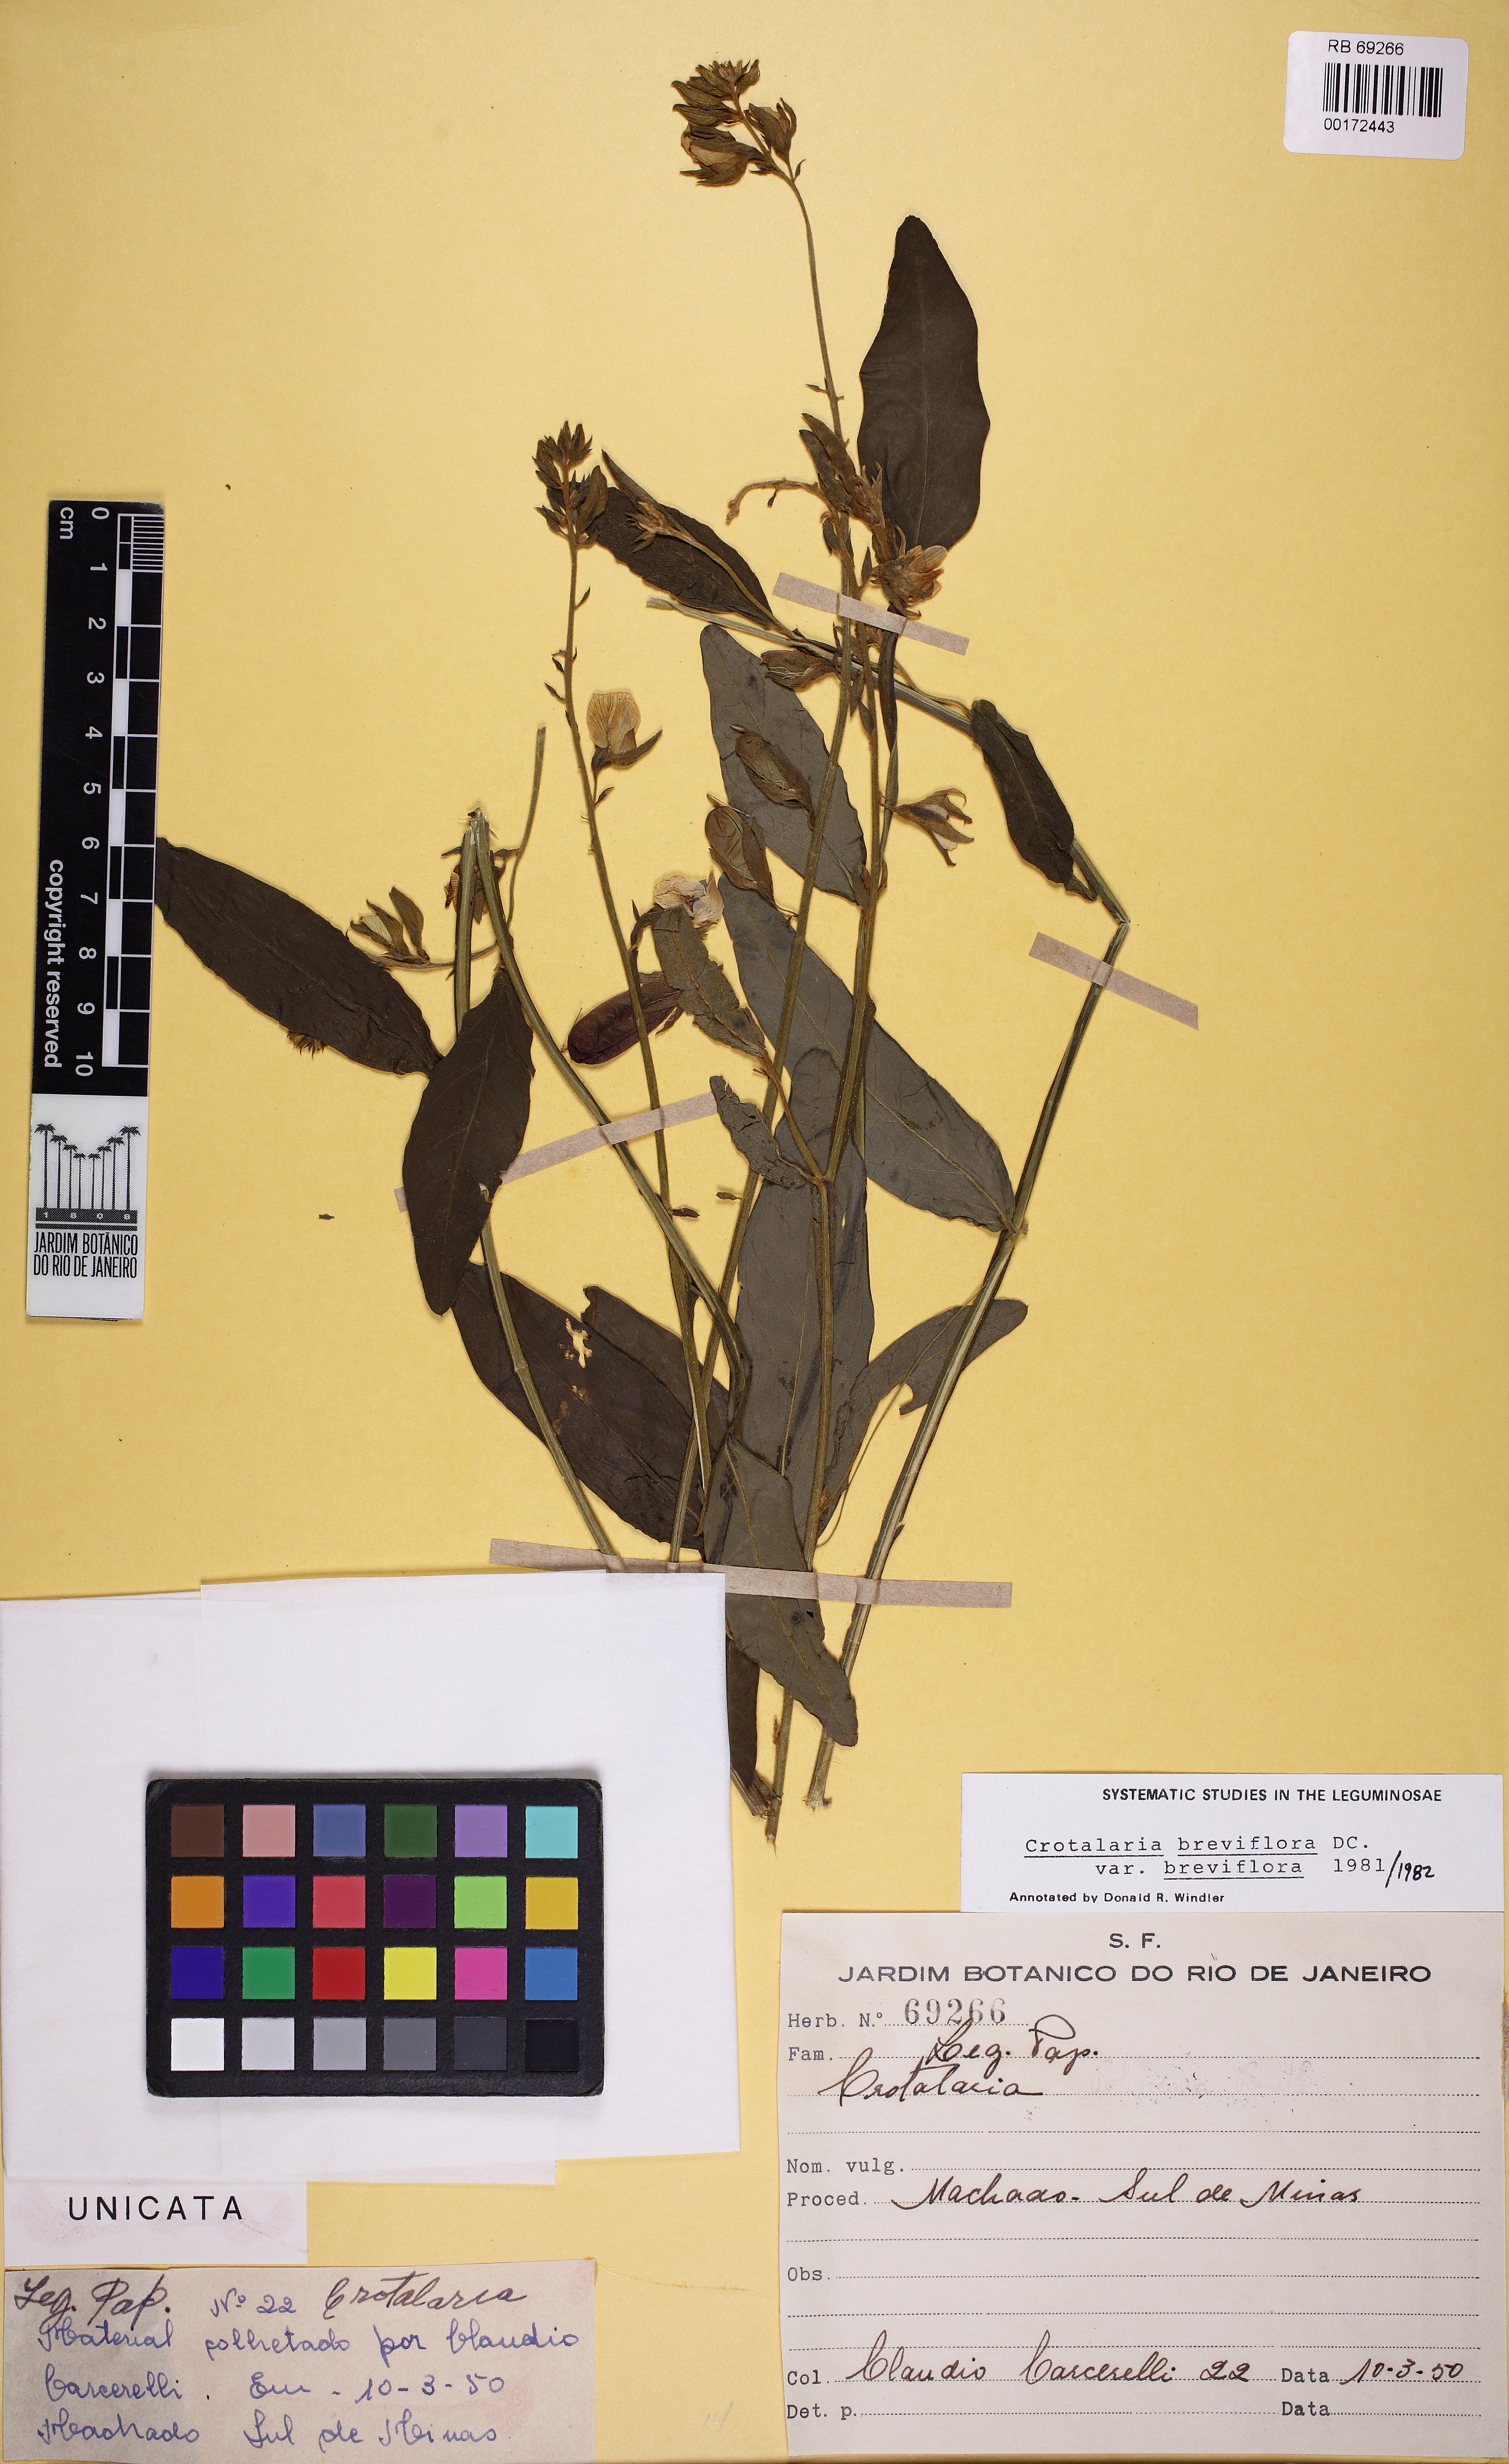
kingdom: Plantae
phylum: Tracheophyta
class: Magnoliopsida
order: Fabales
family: Fabaceae
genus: Crotalaria
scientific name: Crotalaria breviflora
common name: Short-flower crotalaria
